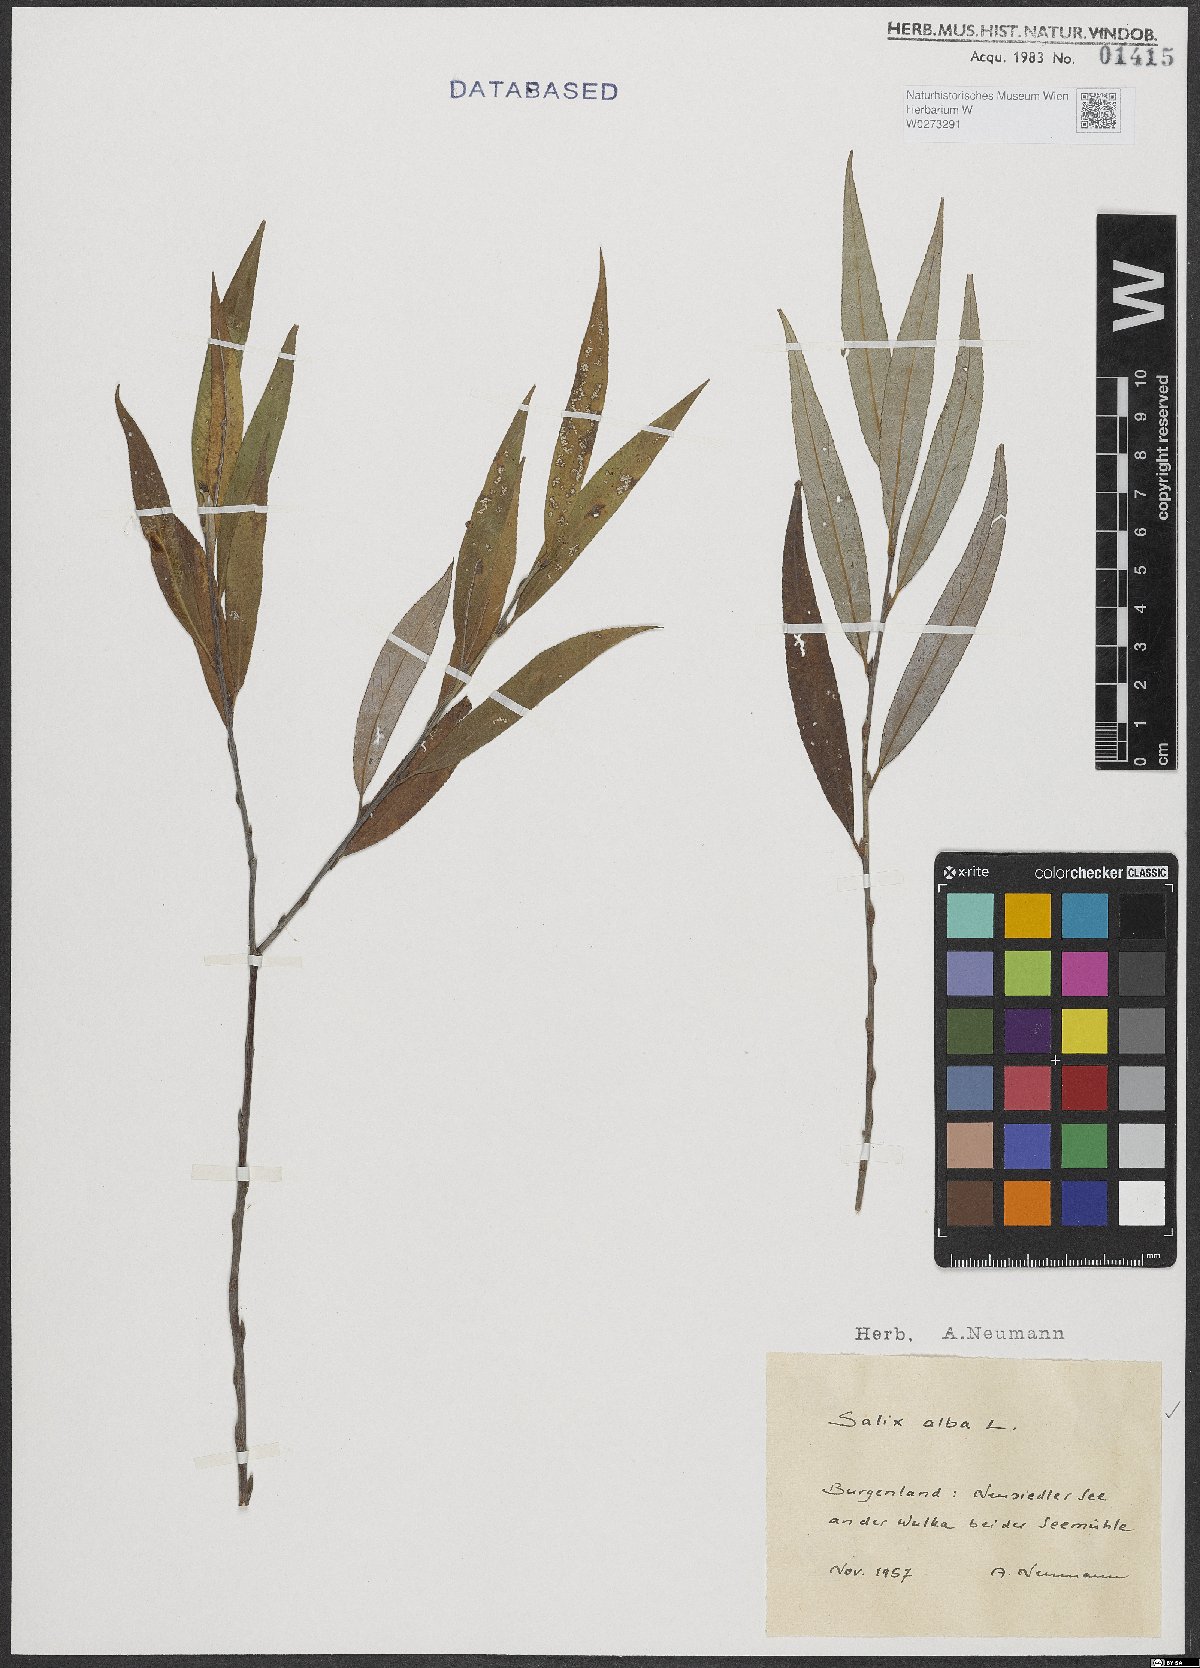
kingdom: Plantae
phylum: Tracheophyta
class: Magnoliopsida
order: Malpighiales
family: Salicaceae
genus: Salix
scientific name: Salix alba
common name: White willow
